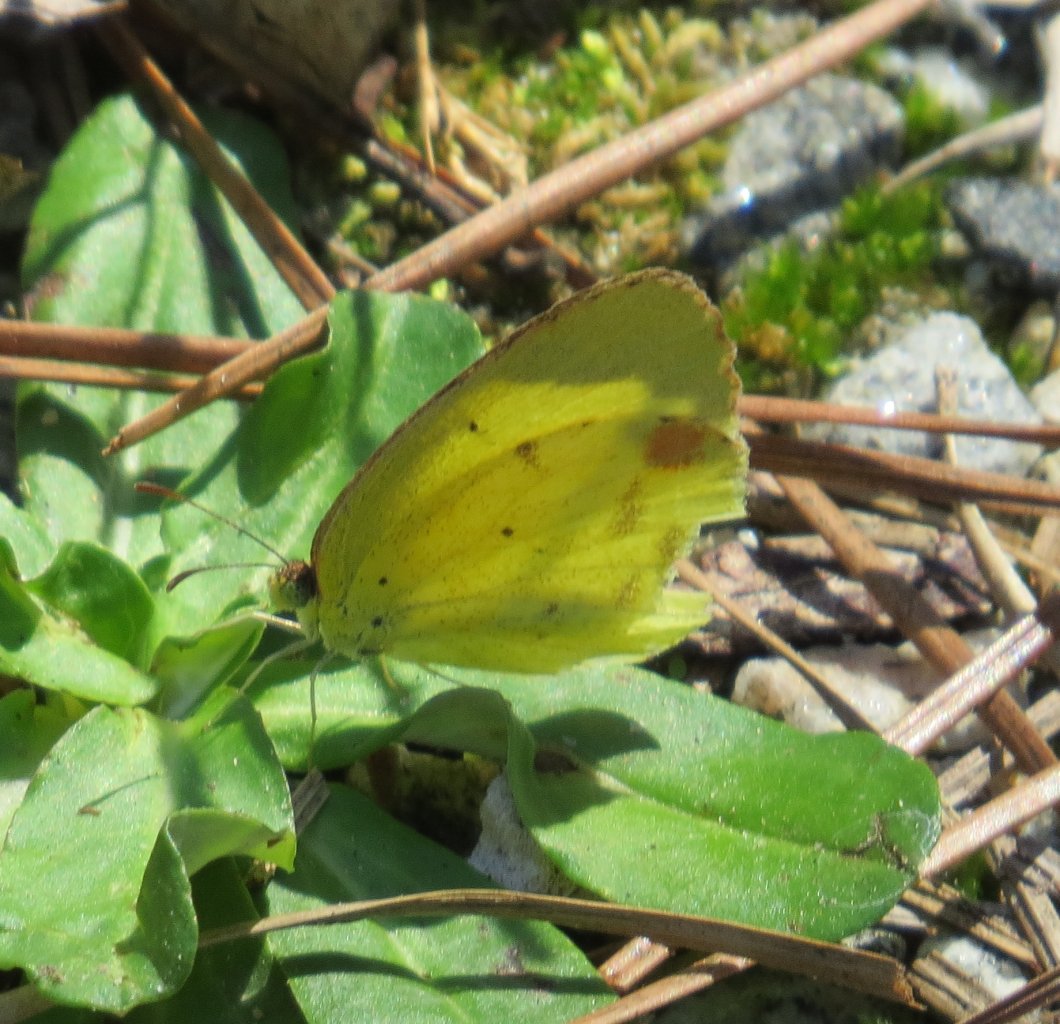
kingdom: Animalia
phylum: Arthropoda
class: Insecta
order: Lepidoptera
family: Pieridae
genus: Pyrisitia
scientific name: Pyrisitia lisa
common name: Little Yellow
